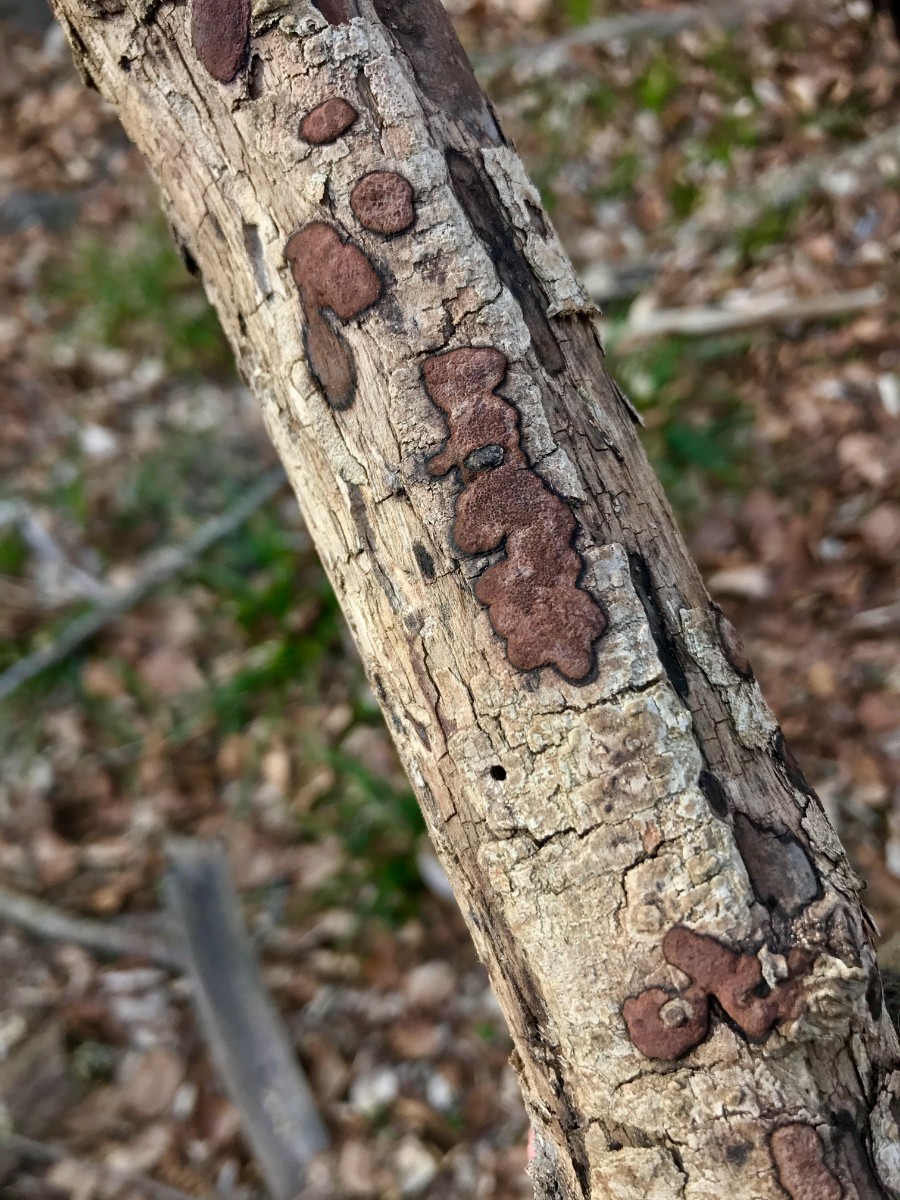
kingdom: Fungi
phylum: Ascomycota
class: Sordariomycetes
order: Xylariales
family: Hypoxylaceae
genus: Hypoxylon
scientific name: Hypoxylon petriniae
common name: nedsænket kulbær
